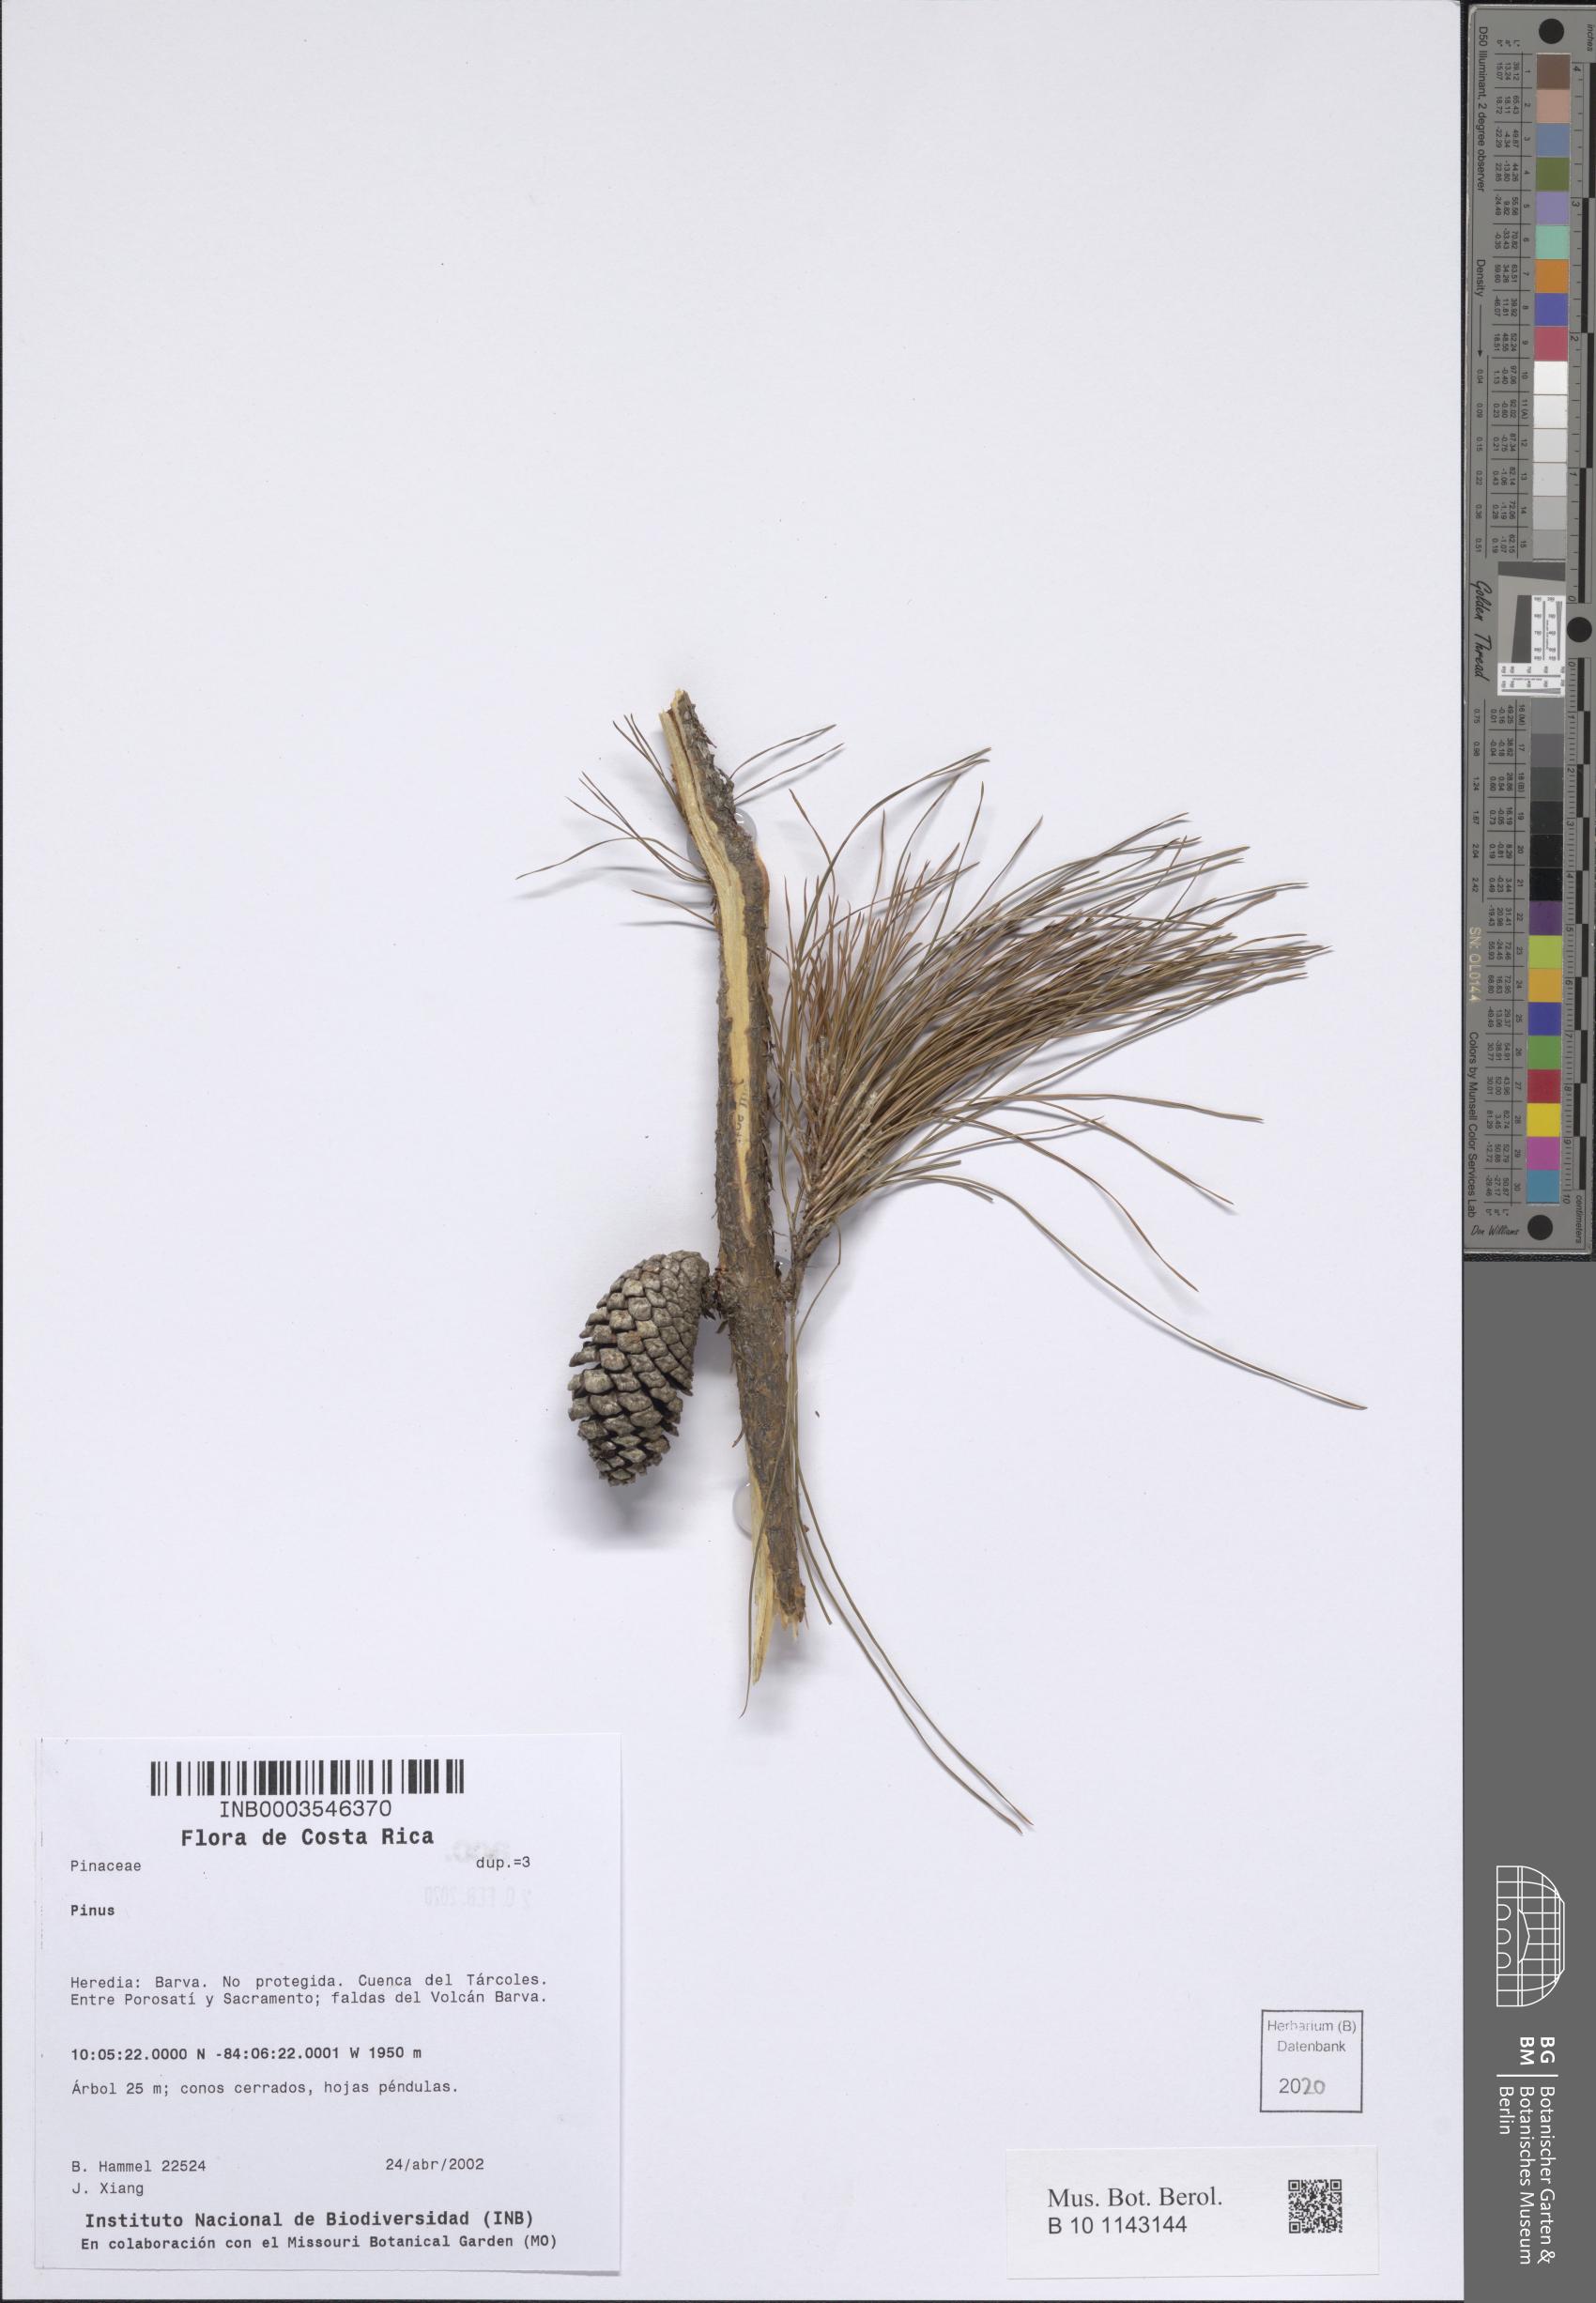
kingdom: Plantae
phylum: Tracheophyta
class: Pinopsida
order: Pinales
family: Pinaceae
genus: Pinus
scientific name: Pinus
